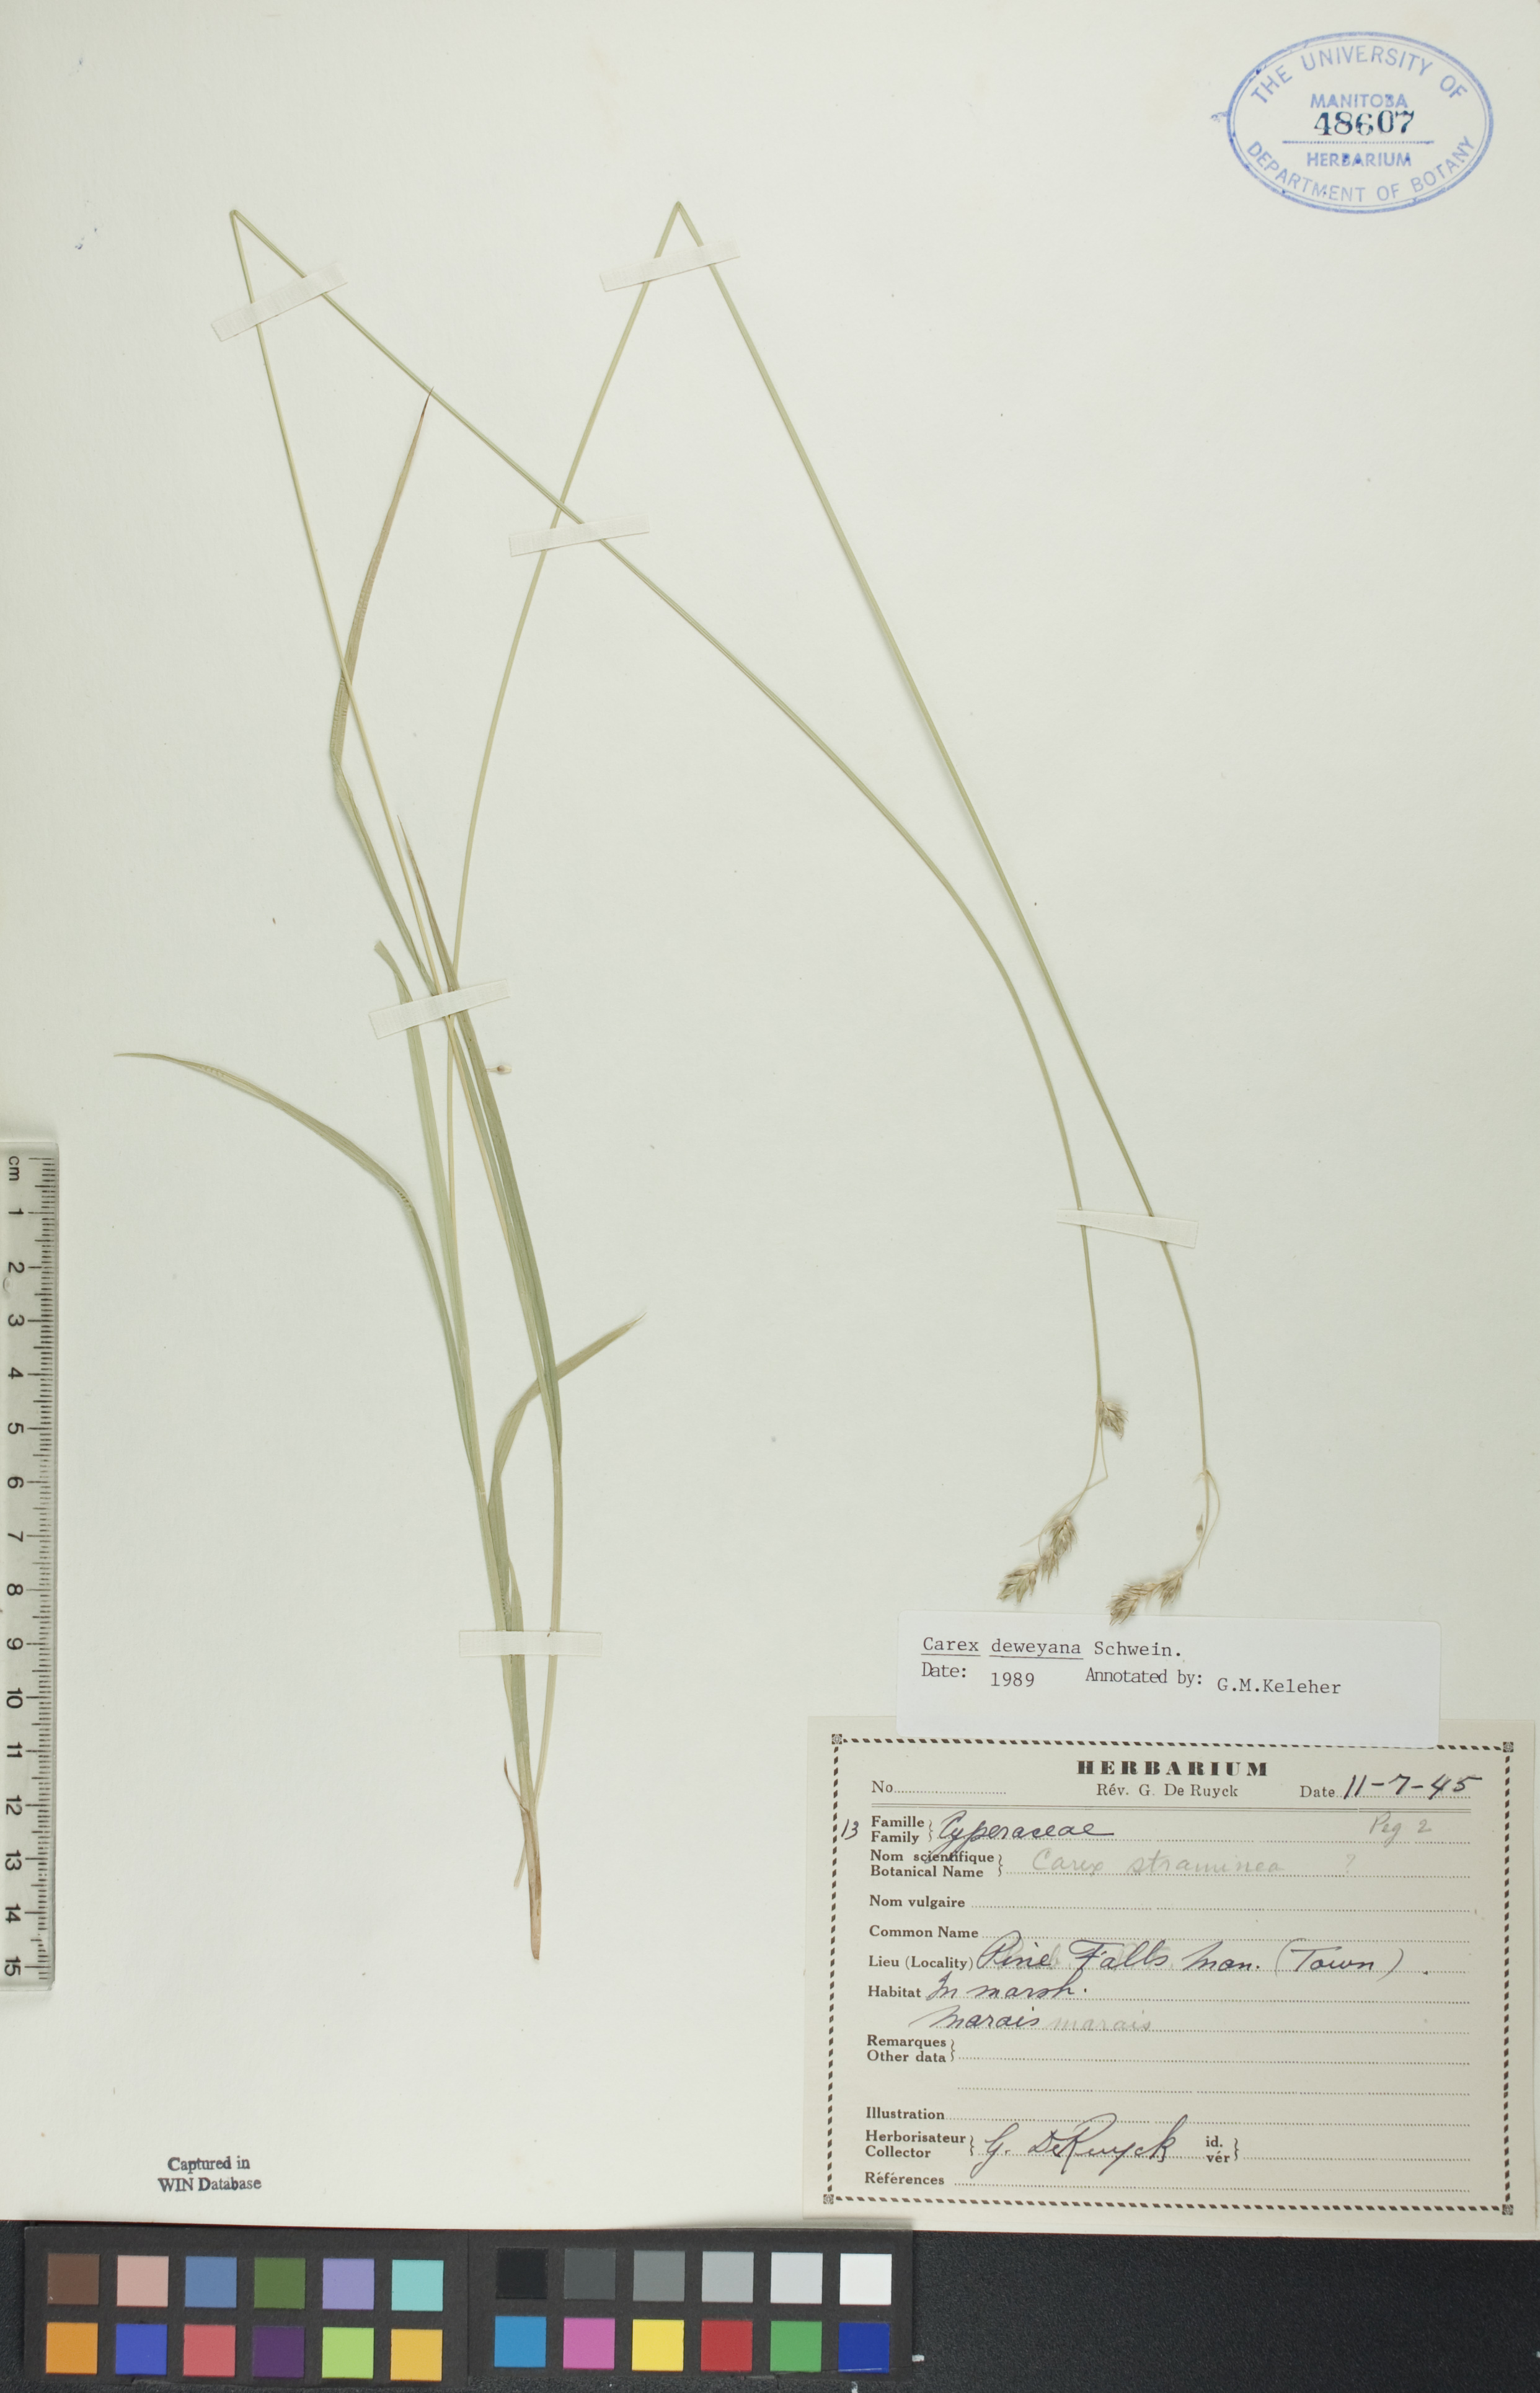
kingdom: Plantae
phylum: Tracheophyta
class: Liliopsida
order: Poales
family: Cyperaceae
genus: Carex
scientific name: Carex deweyana
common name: Dewey's sedge
